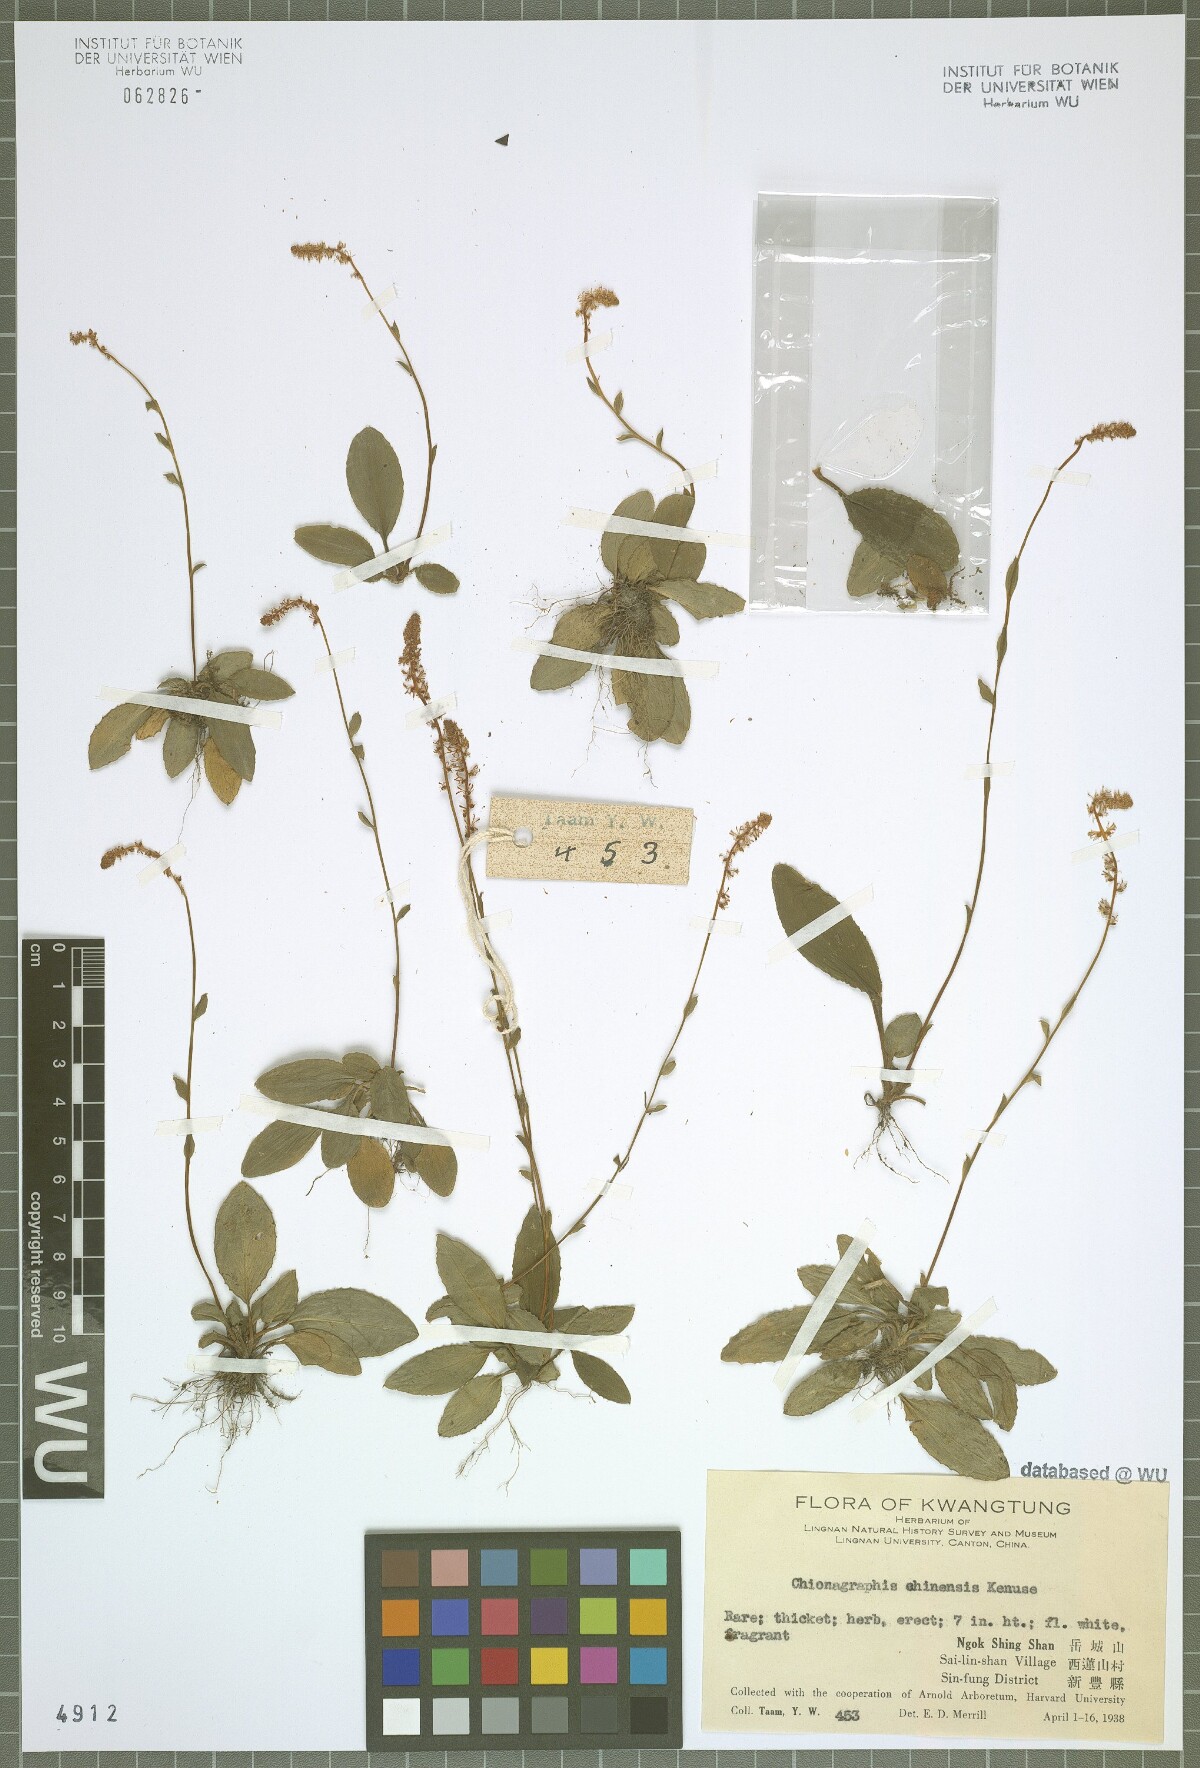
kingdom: Plantae
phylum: Tracheophyta
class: Liliopsida
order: Liliales
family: Melanthiaceae
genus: Chamaelirium
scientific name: Chamaelirium chinense
